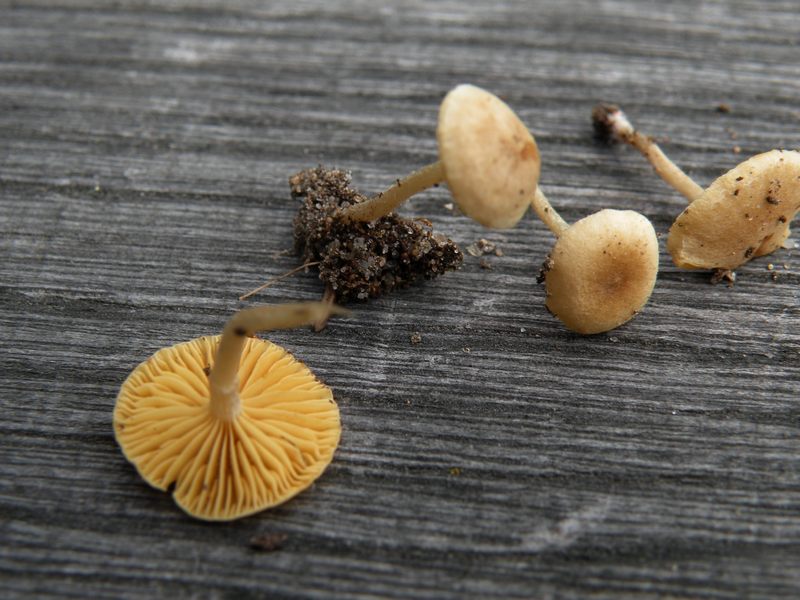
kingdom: Fungi
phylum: Basidiomycota
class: Agaricomycetes
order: Agaricales
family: Tubariaceae
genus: Tubaria
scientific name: Tubaria dispersa
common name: tjørne-fnughat
